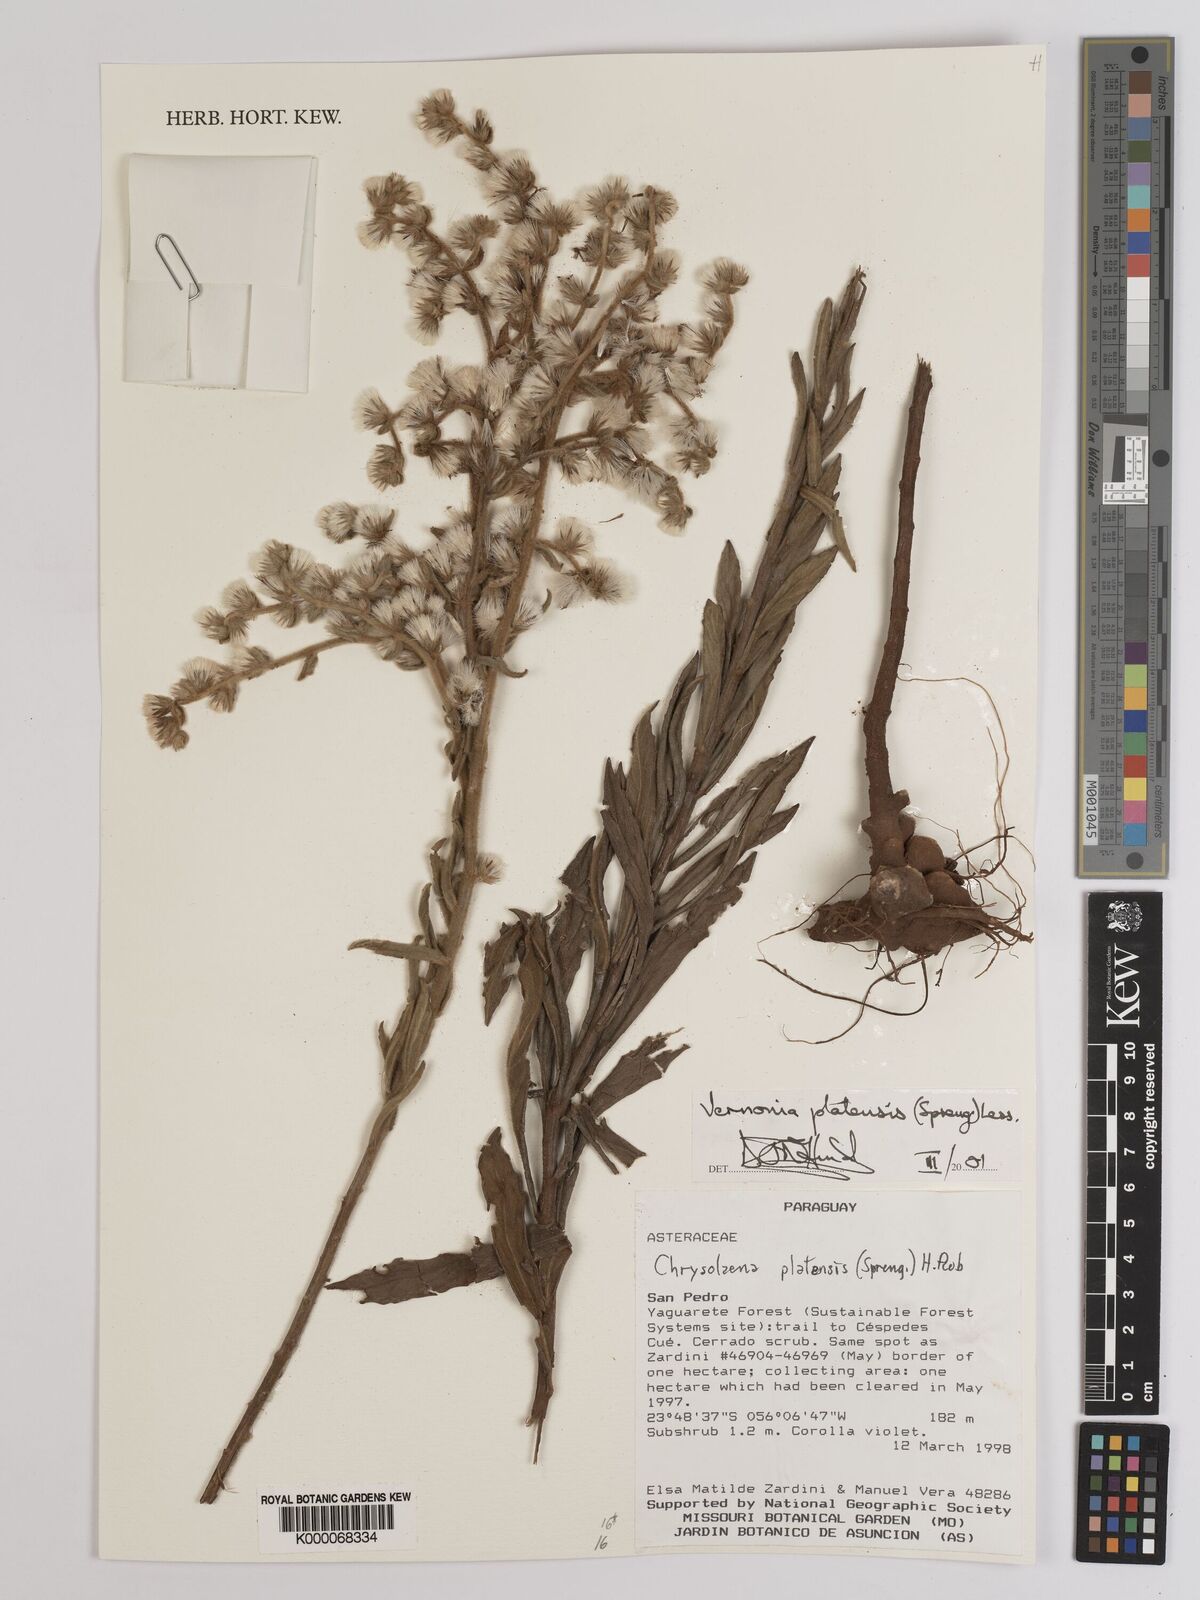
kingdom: Plantae
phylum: Tracheophyta
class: Magnoliopsida
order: Asterales
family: Asteraceae
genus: Chrysolaena
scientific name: Chrysolaena platensis
